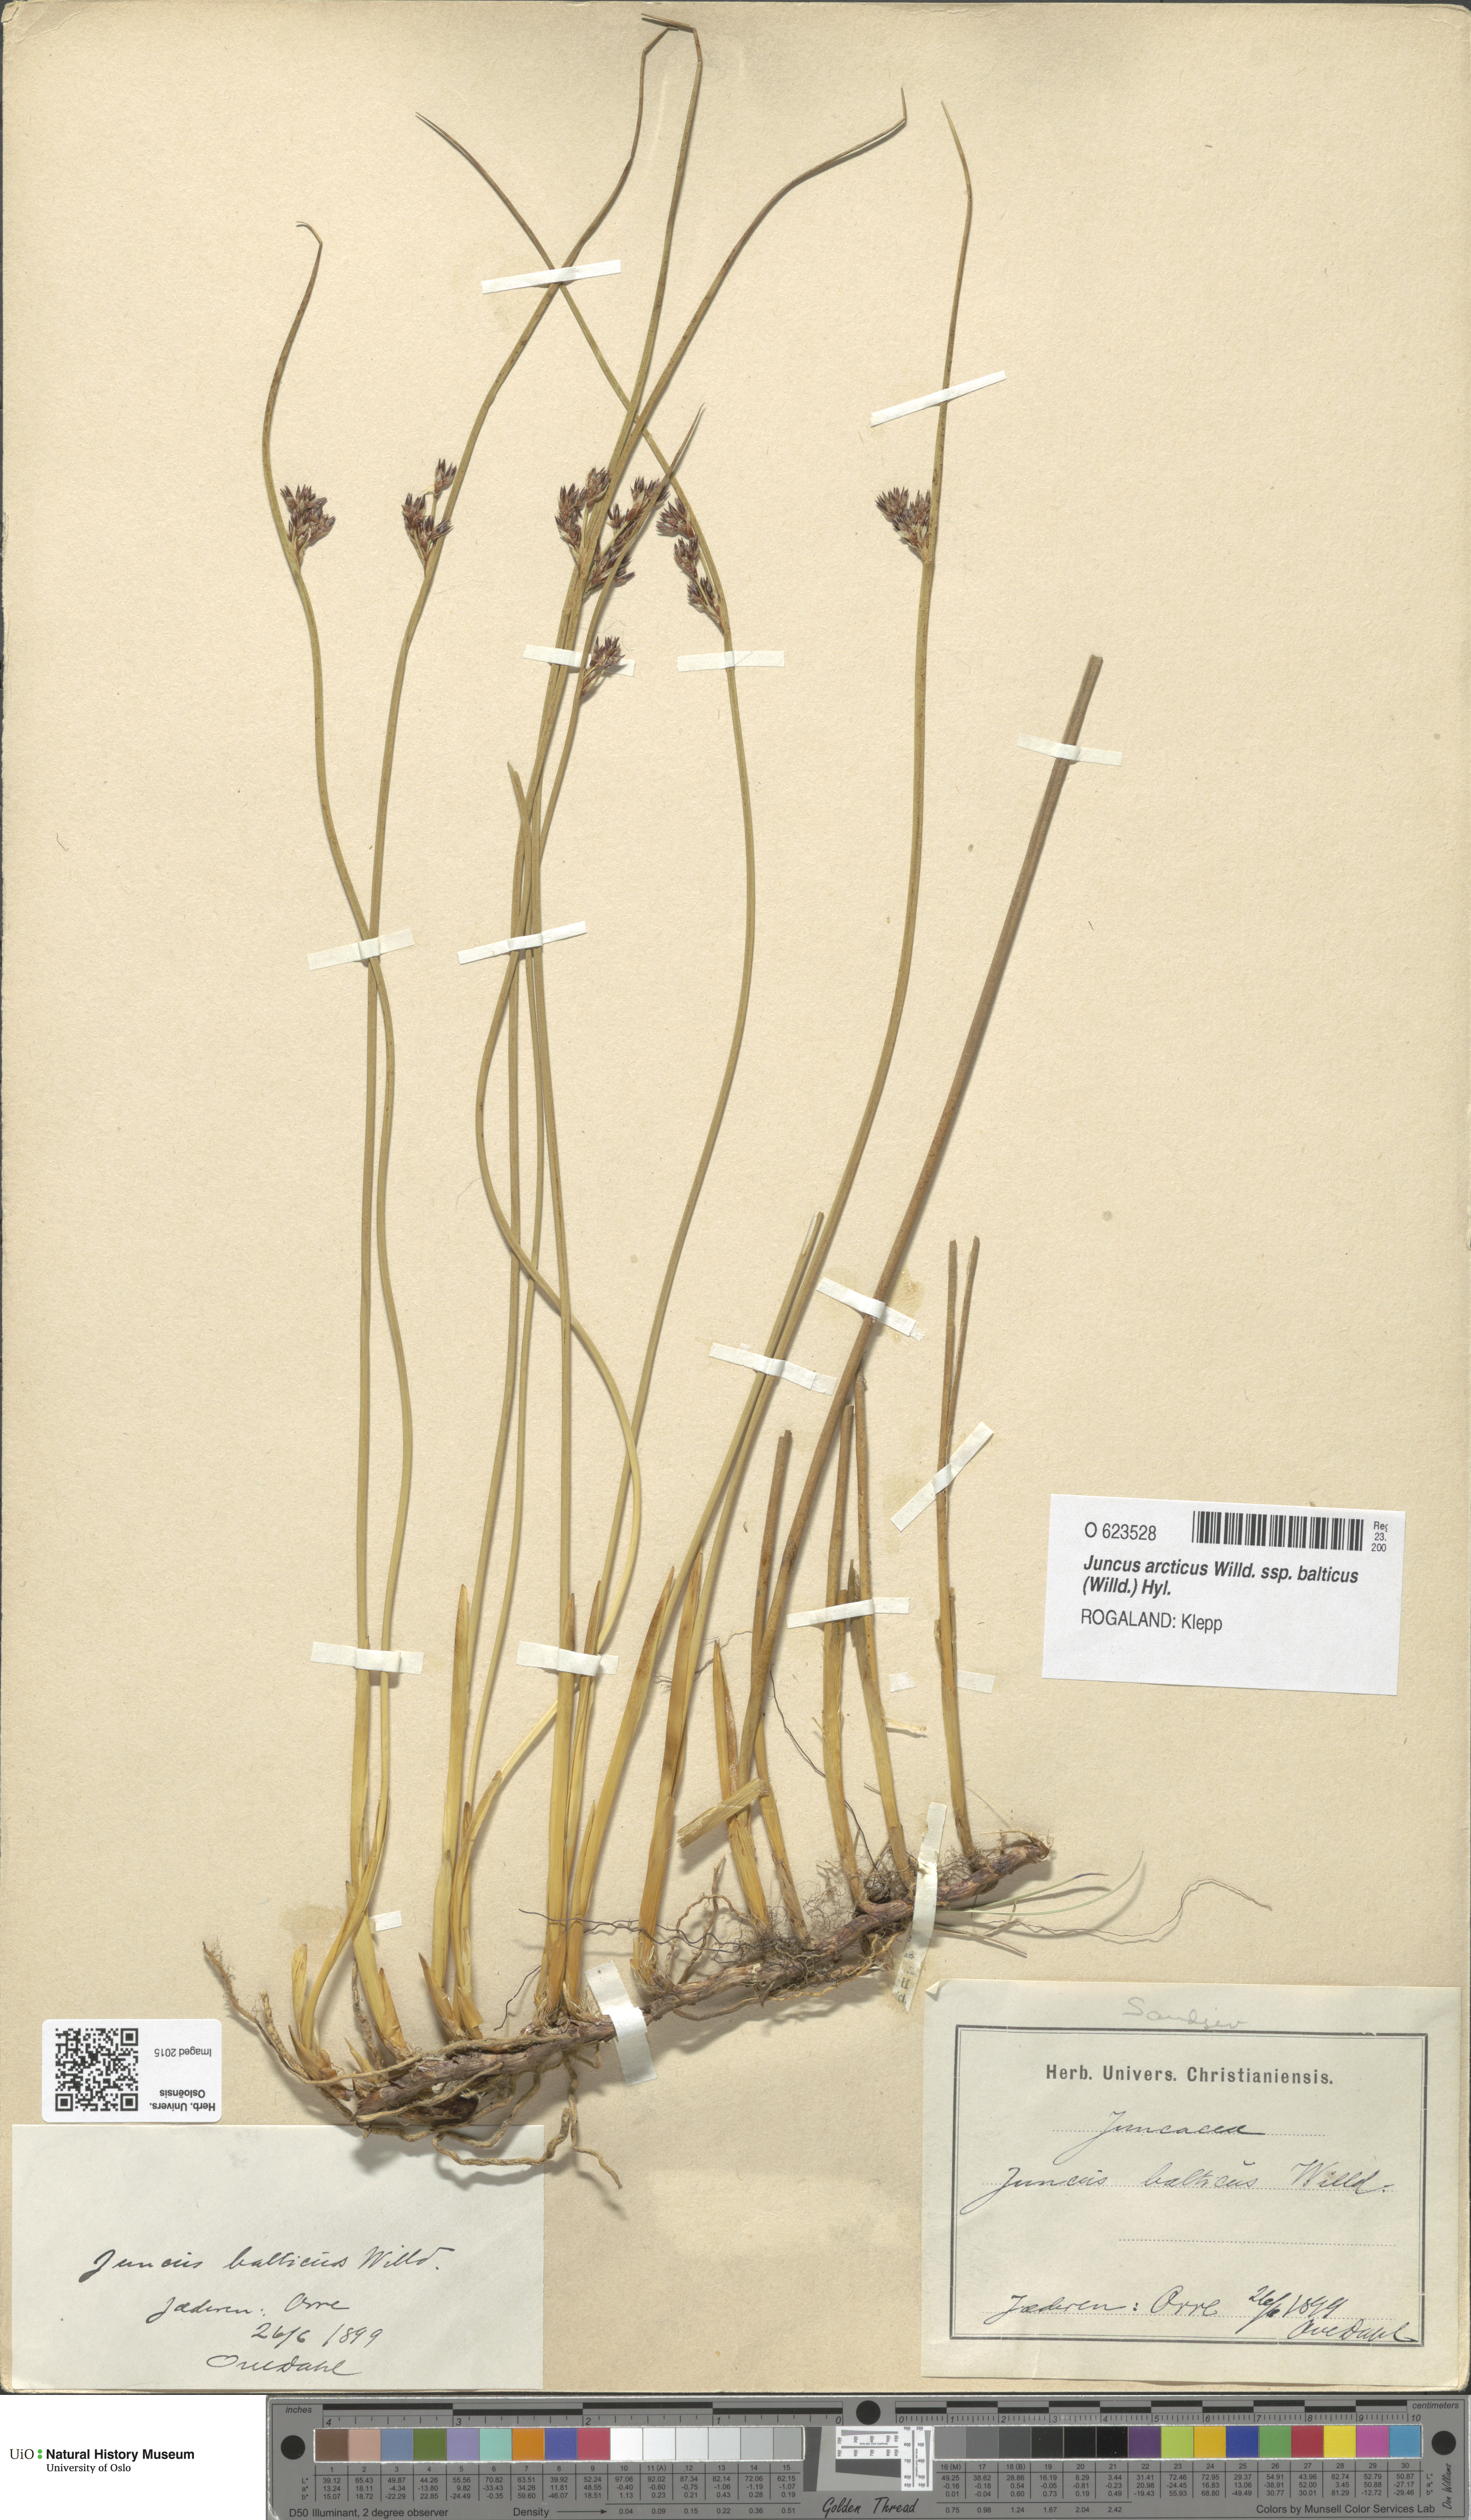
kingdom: Plantae
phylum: Tracheophyta
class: Liliopsida
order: Poales
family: Juncaceae
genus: Juncus
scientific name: Juncus balticus
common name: Baltic rush
